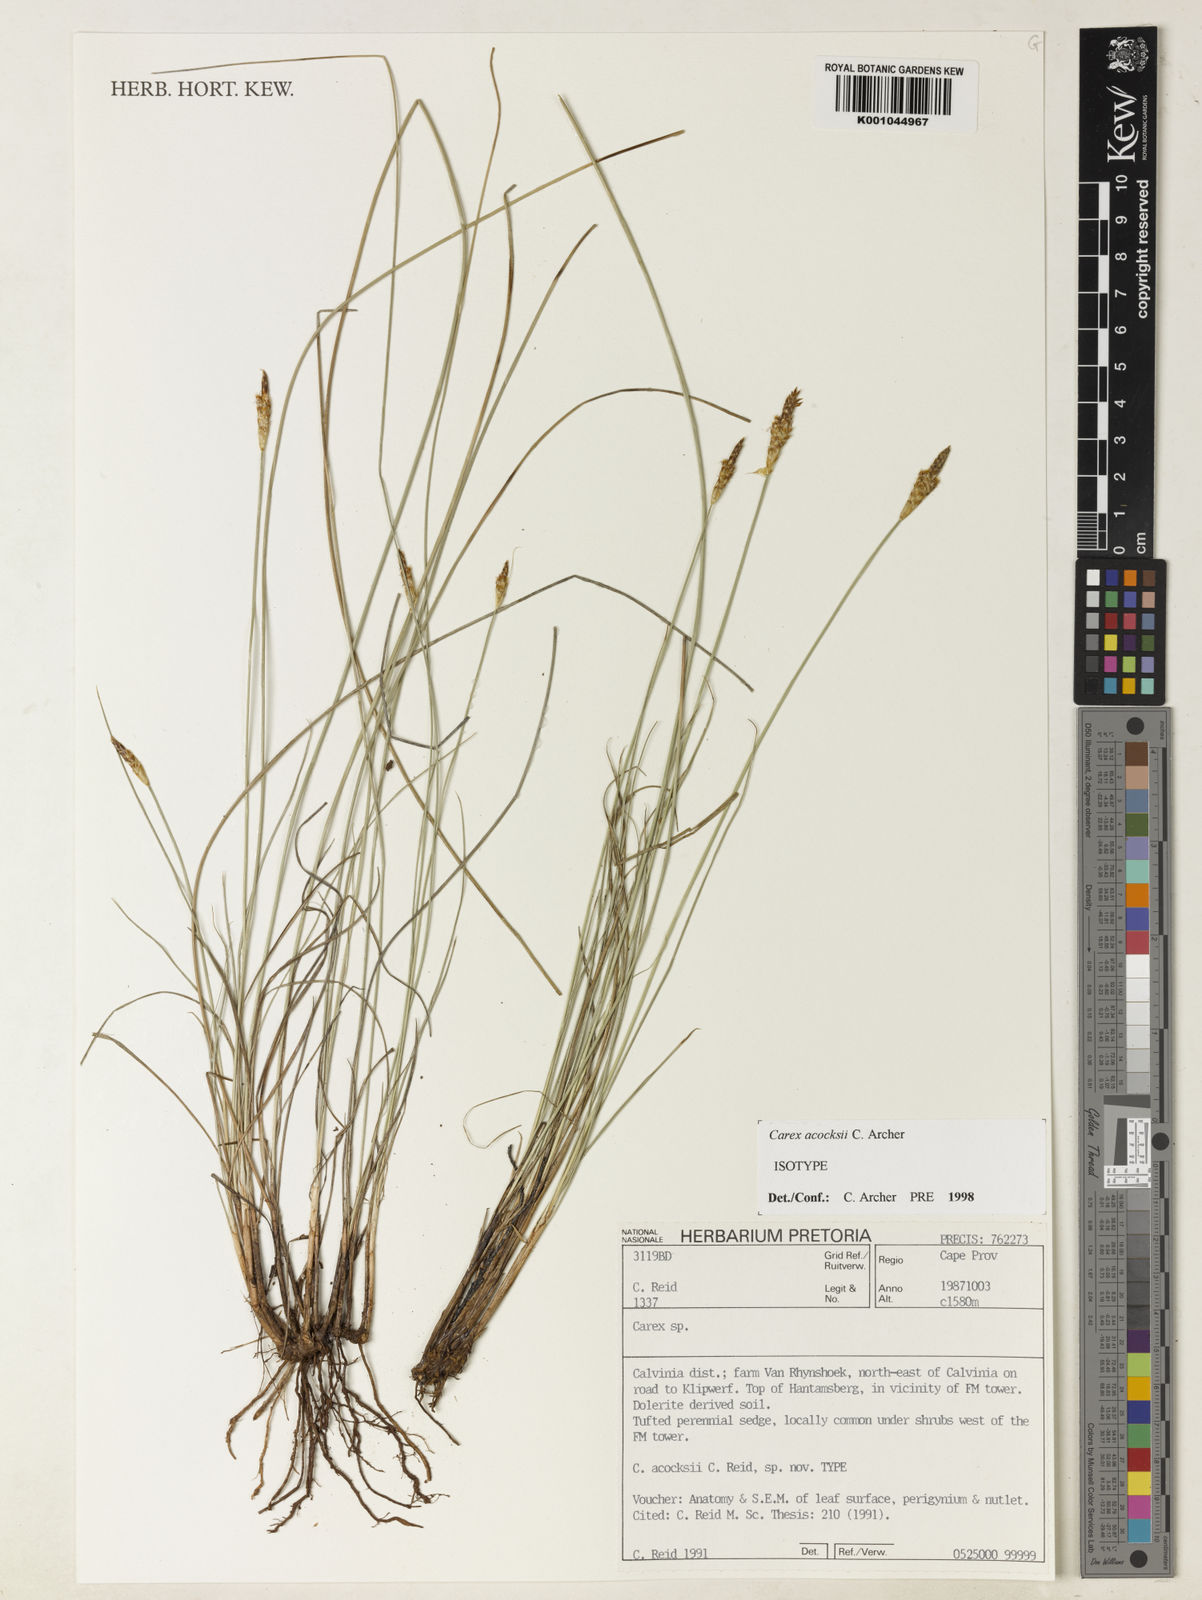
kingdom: Plantae
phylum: Tracheophyta
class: Liliopsida
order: Poales
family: Cyperaceae
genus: Carex
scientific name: Carex acocksii
